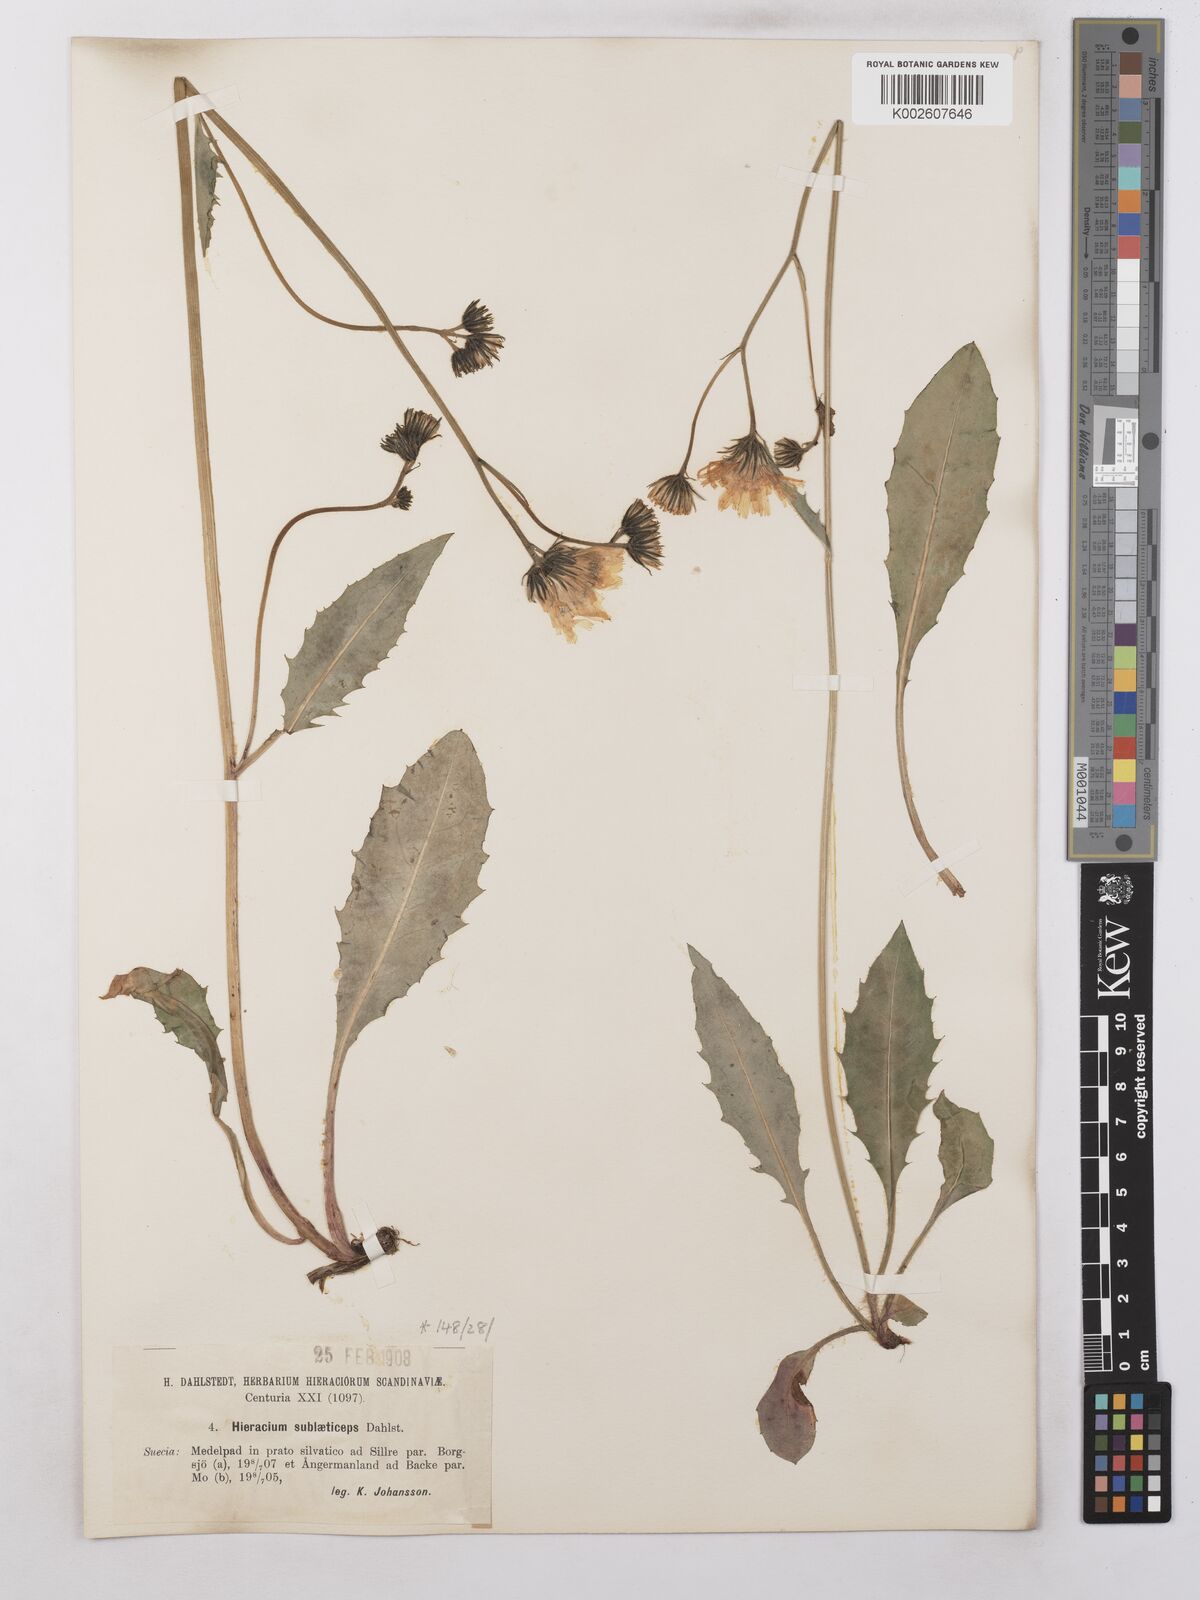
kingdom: Plantae
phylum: Tracheophyta
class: Magnoliopsida
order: Asterales
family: Asteraceae
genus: Hieracium
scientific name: Hieracium sublaeticeps
